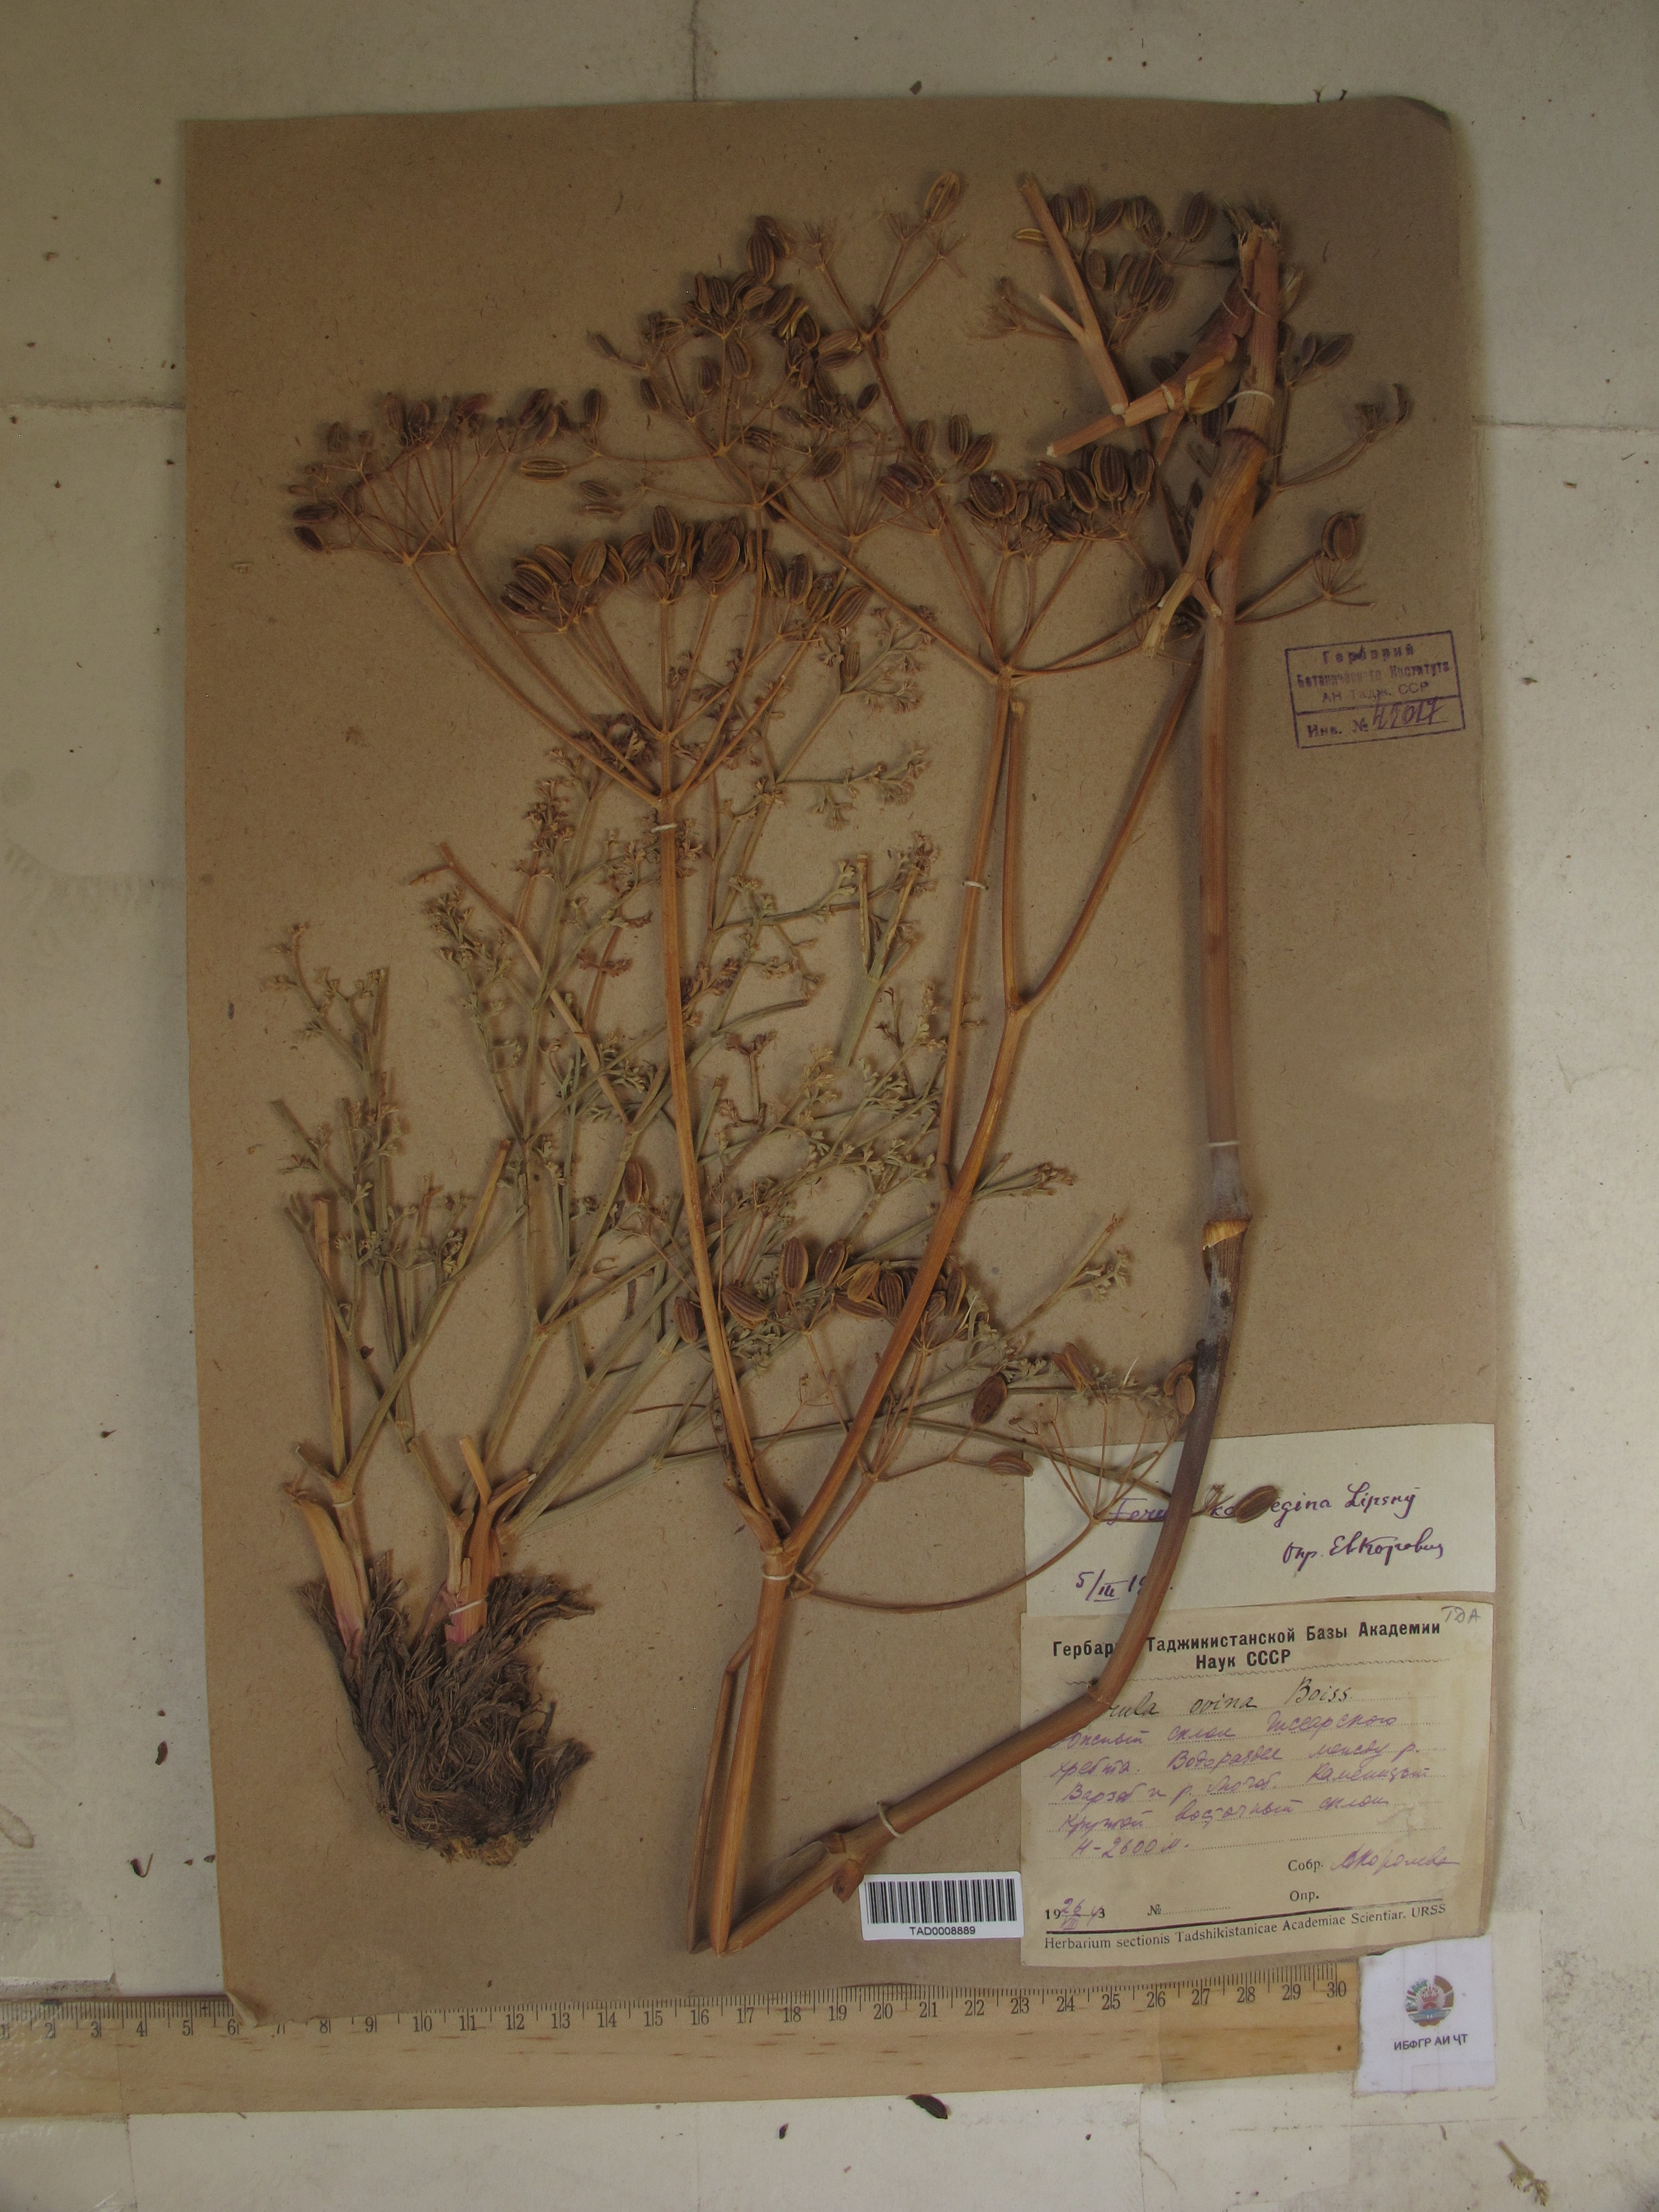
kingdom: Plantae
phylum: Tracheophyta
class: Magnoliopsida
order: Apiales
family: Apiaceae
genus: Ferula
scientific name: Ferula karategina
